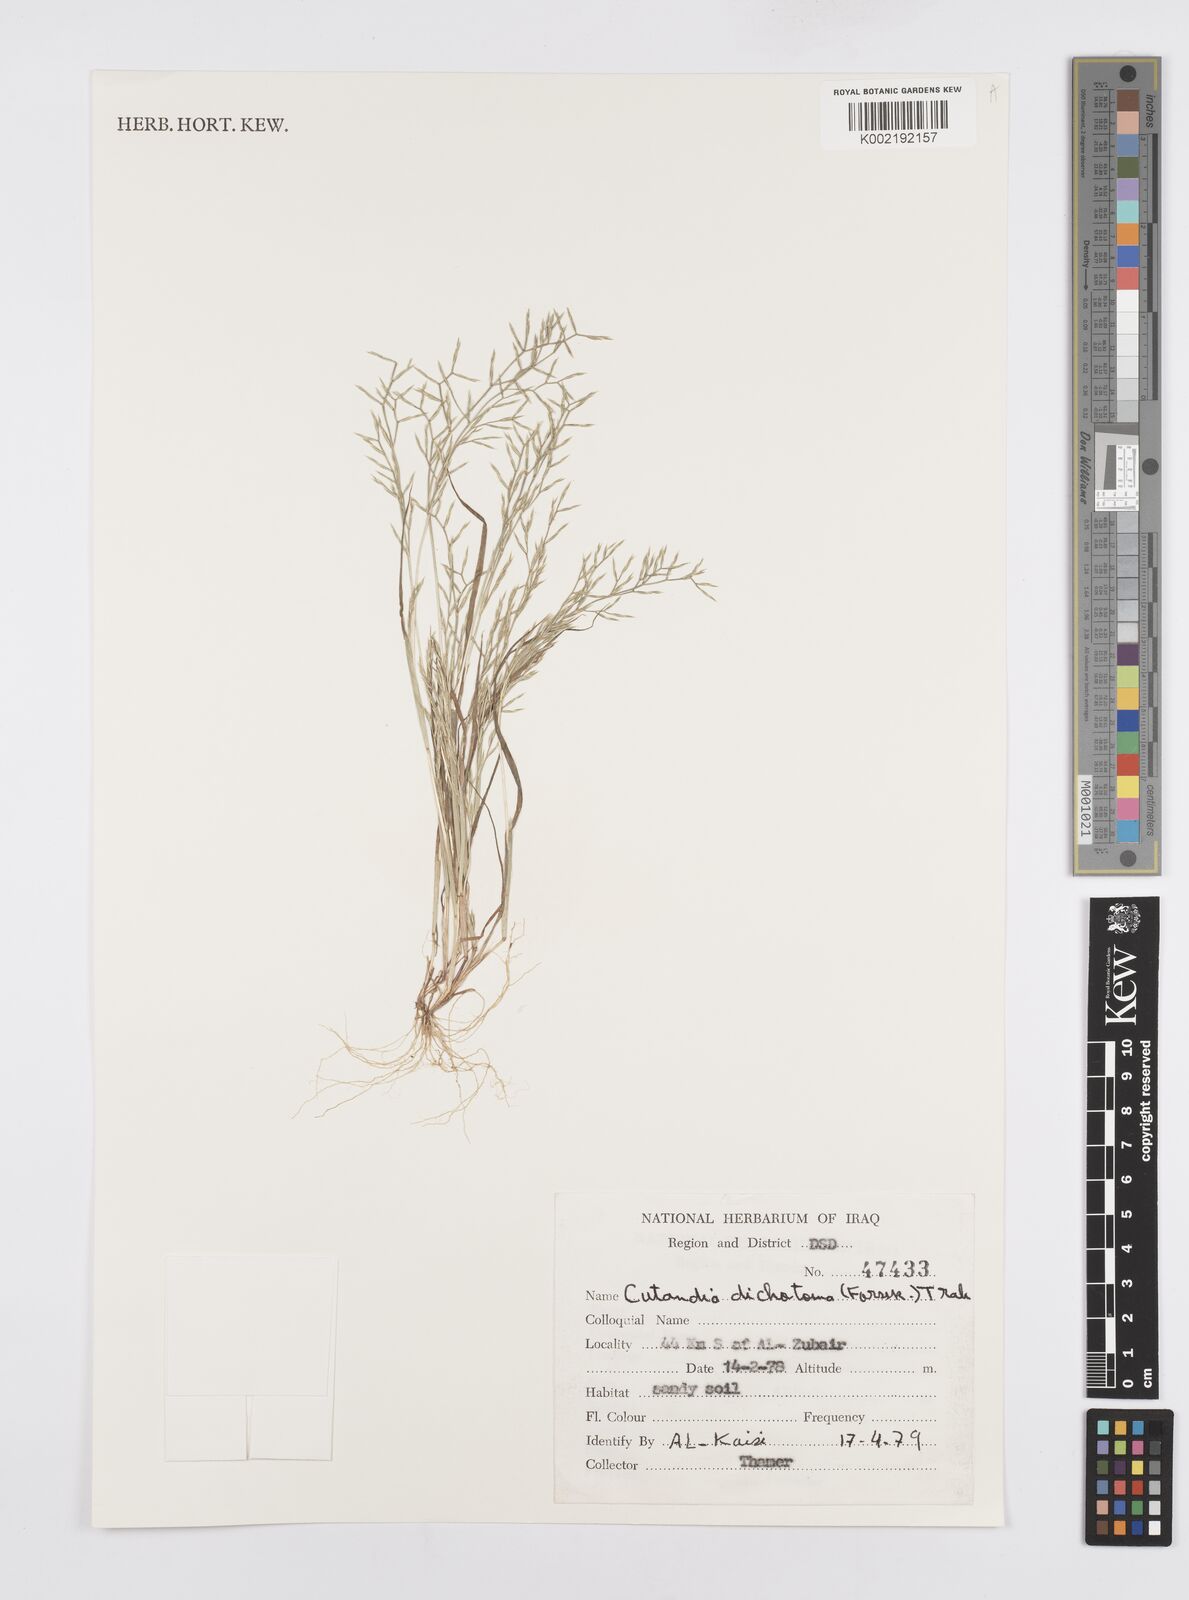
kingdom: Plantae
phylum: Tracheophyta
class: Liliopsida
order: Poales
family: Poaceae
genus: Cutandia
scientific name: Cutandia dichotoma
